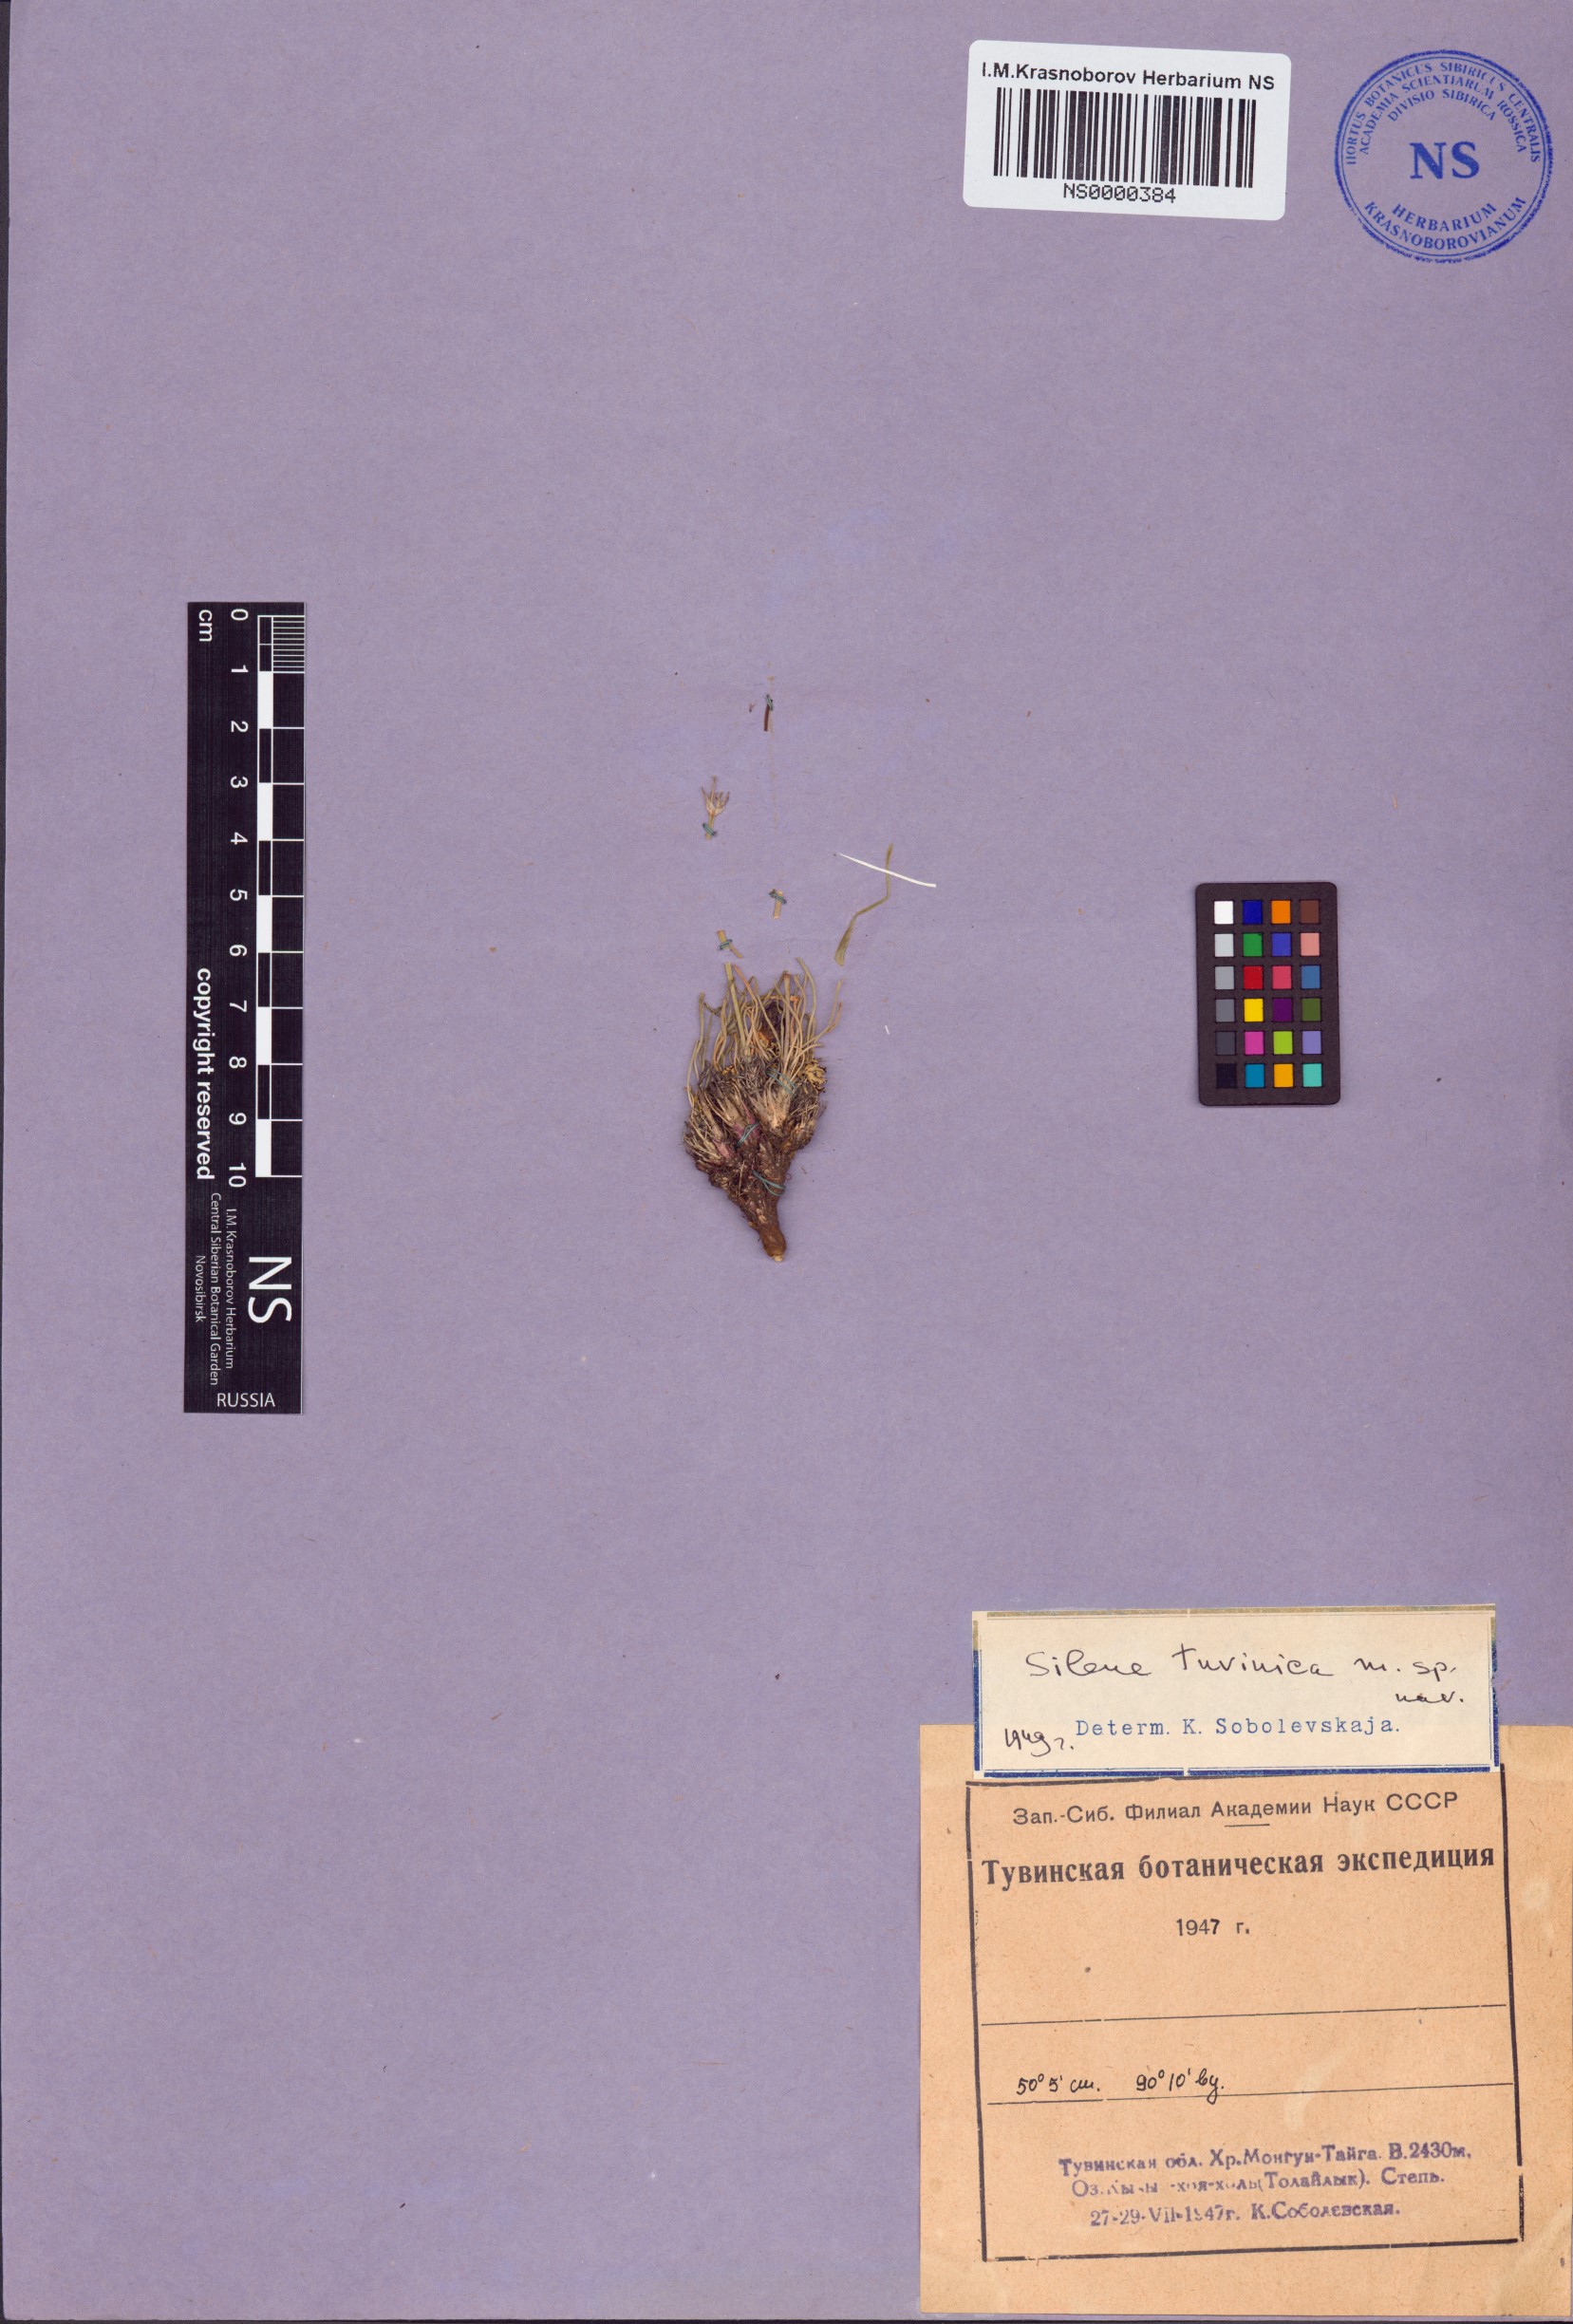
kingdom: Plantae
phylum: Tracheophyta
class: Magnoliopsida
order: Caryophyllales
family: Caryophyllaceae
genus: Silene
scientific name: Silene jeniseensis
